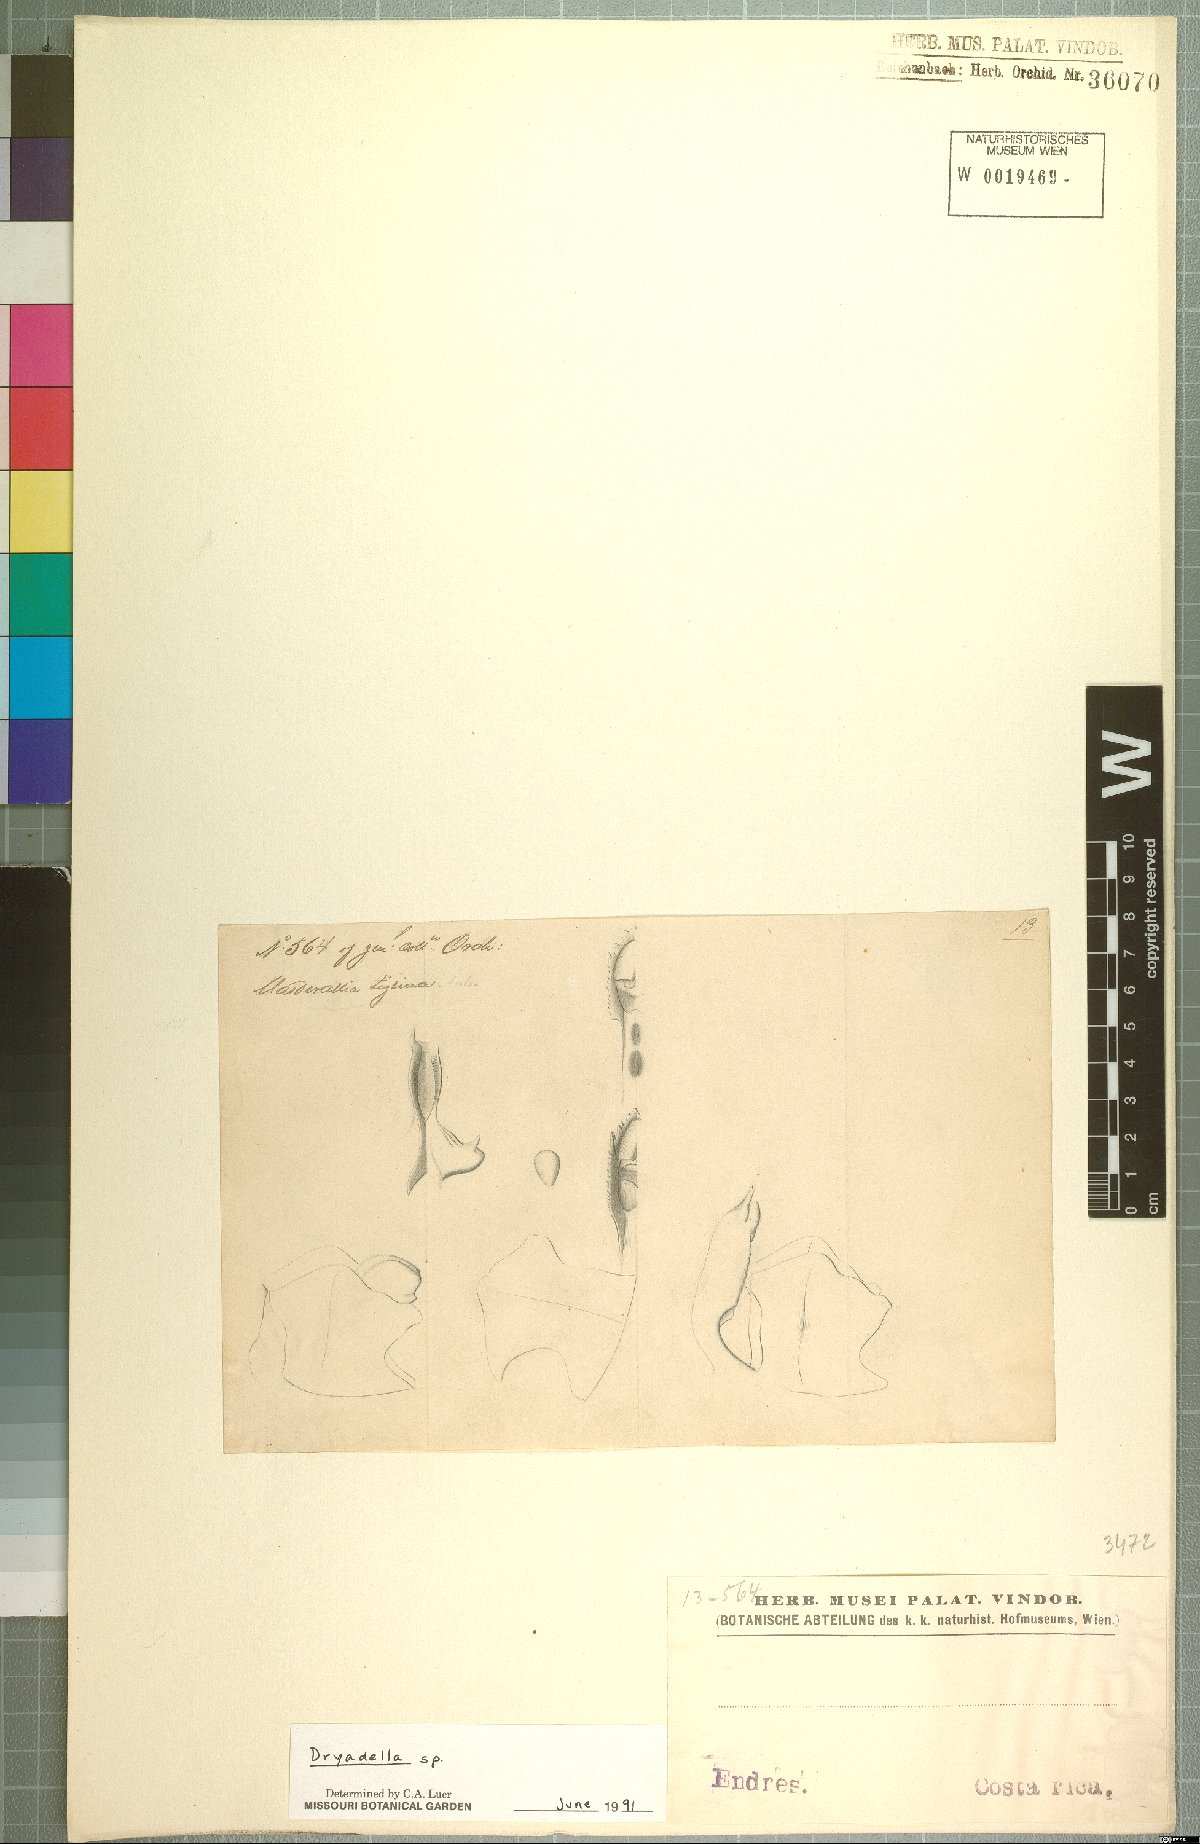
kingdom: Plantae
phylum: Tracheophyta
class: Liliopsida
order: Asparagales
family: Orchidaceae
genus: Dryadella
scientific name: Dryadella
